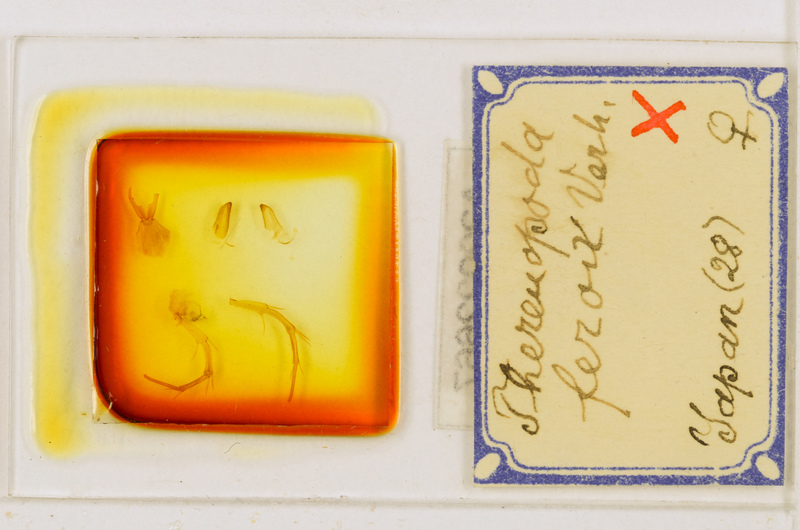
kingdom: Animalia
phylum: Arthropoda
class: Chilopoda
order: Scutigeromorpha
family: Scutigeridae
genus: Thereuopoda
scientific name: Thereuopoda clunifera
